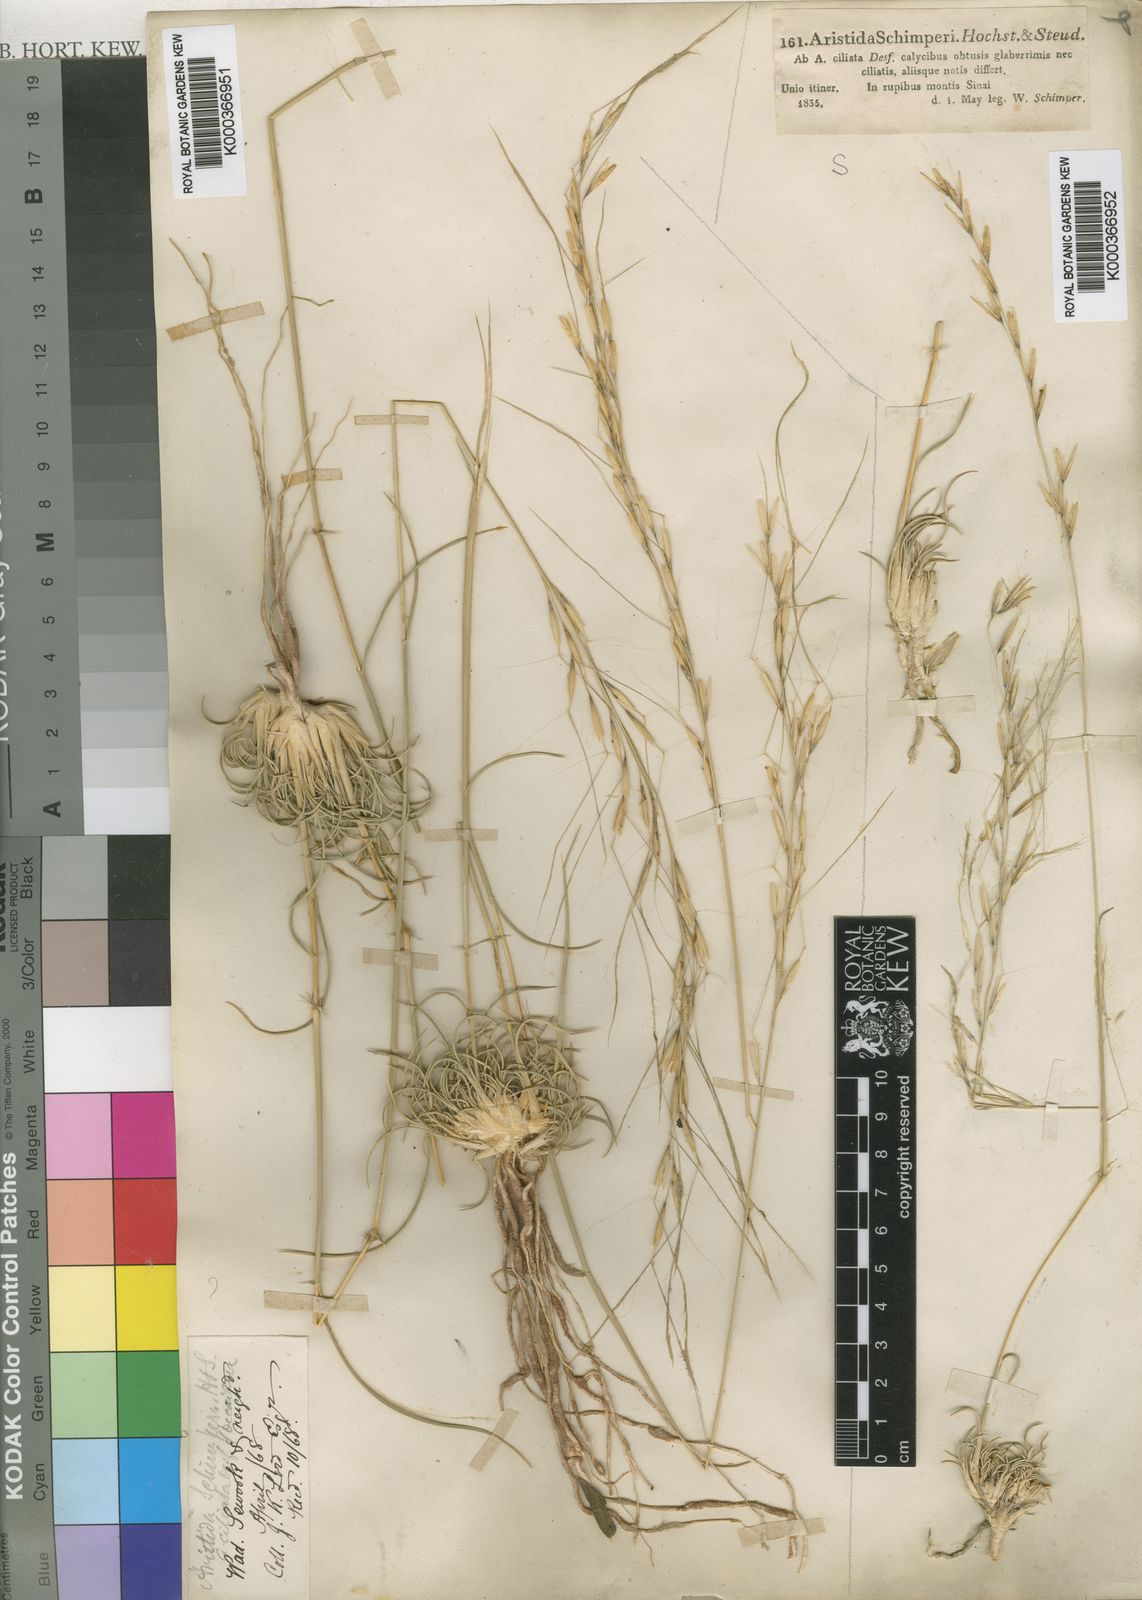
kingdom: Plantae
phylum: Tracheophyta
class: Liliopsida
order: Poales
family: Poaceae
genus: Stipagrostis
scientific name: Stipagrostis ciliata
